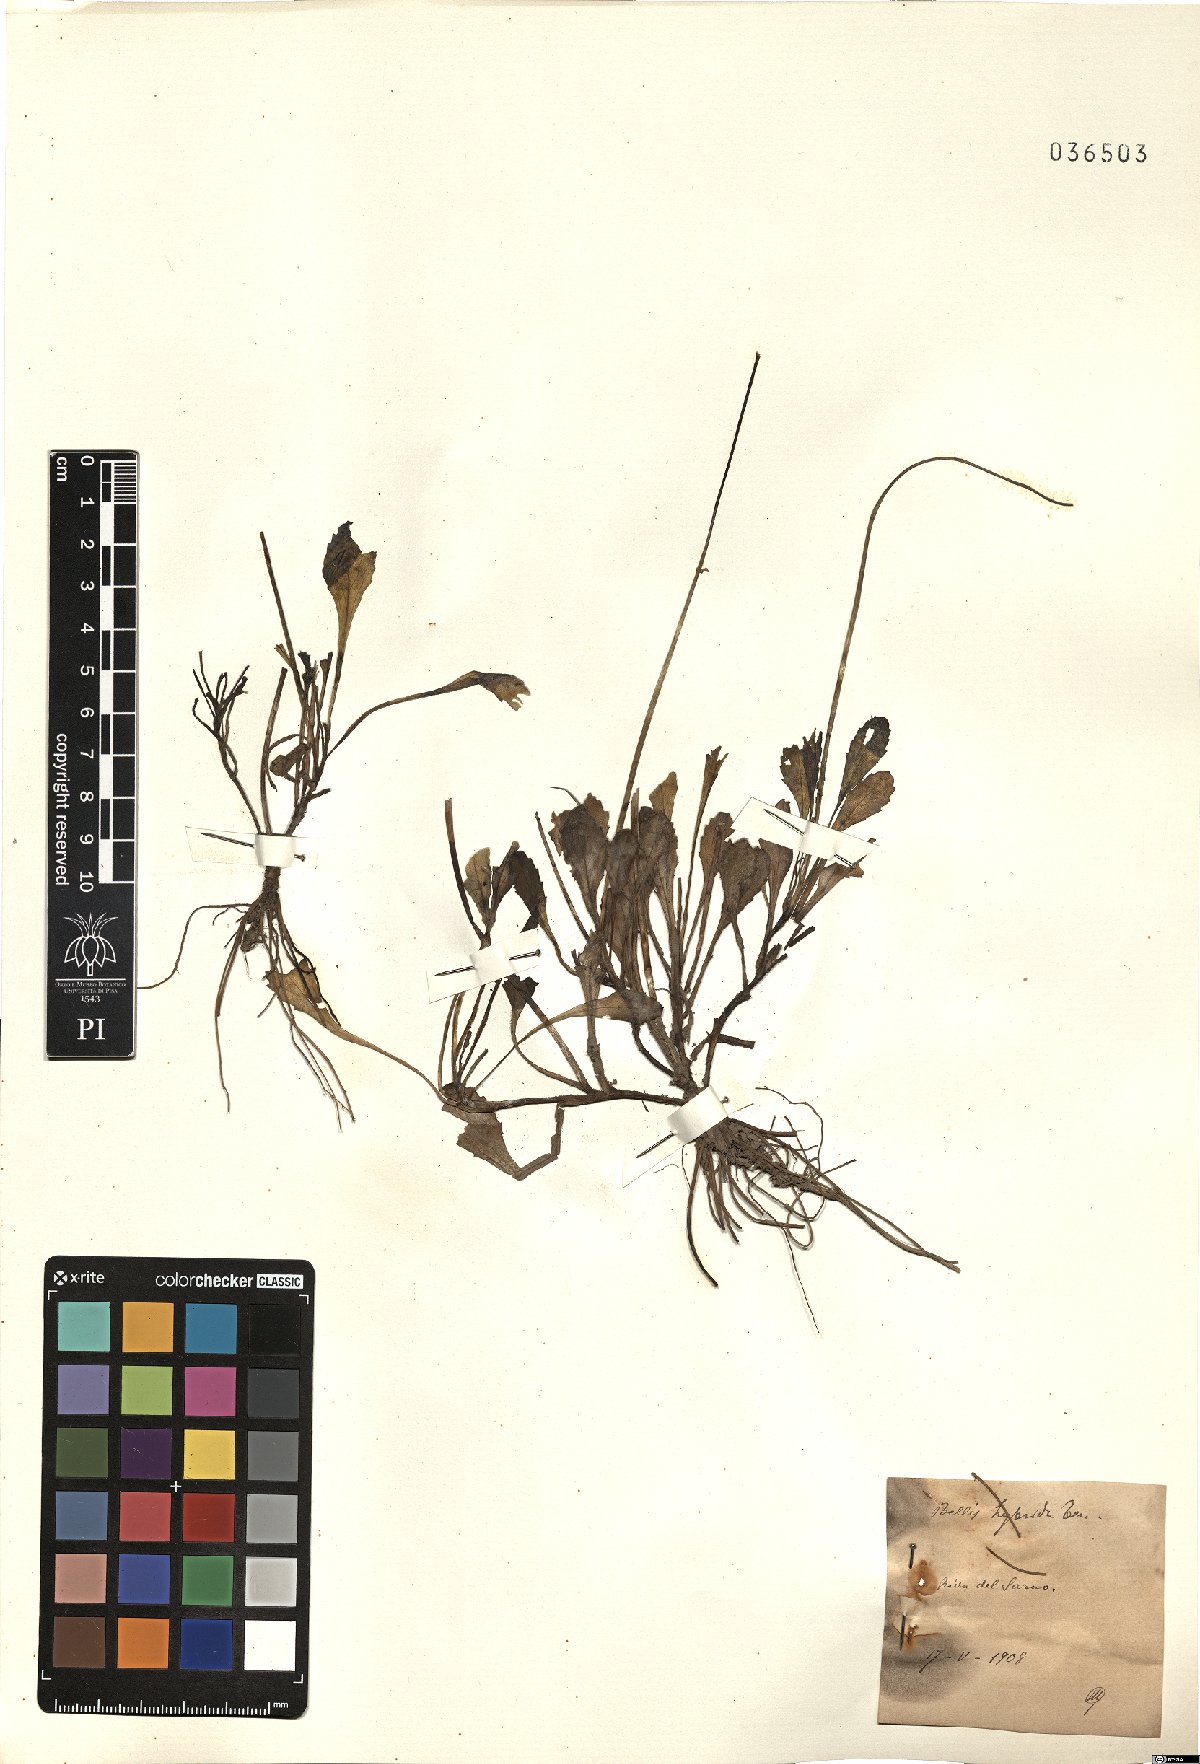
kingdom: Plantae
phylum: Tracheophyta
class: Magnoliopsida
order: Asterales
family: Asteraceae
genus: Bellis
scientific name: Bellis perennis
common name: Lawndaisy
